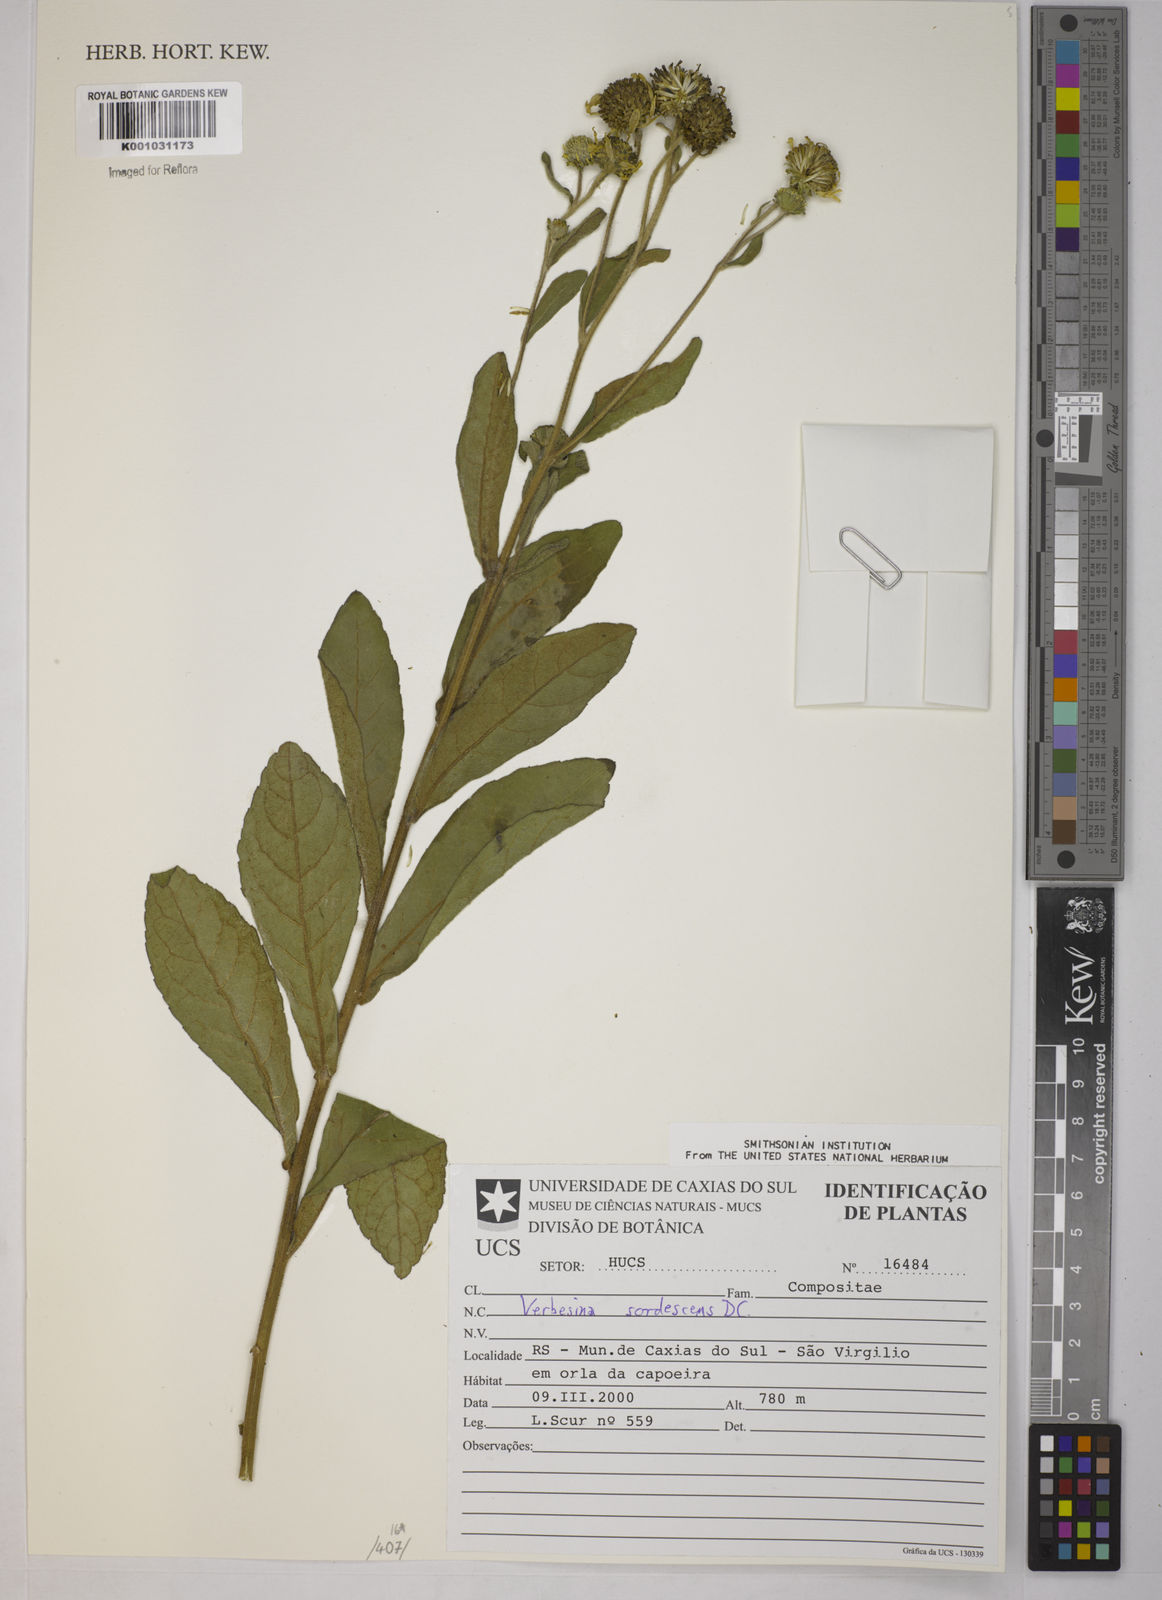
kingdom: Plantae
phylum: Tracheophyta
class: Magnoliopsida
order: Asterales
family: Asteraceae
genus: Verbesina
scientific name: Verbesina sordescens
